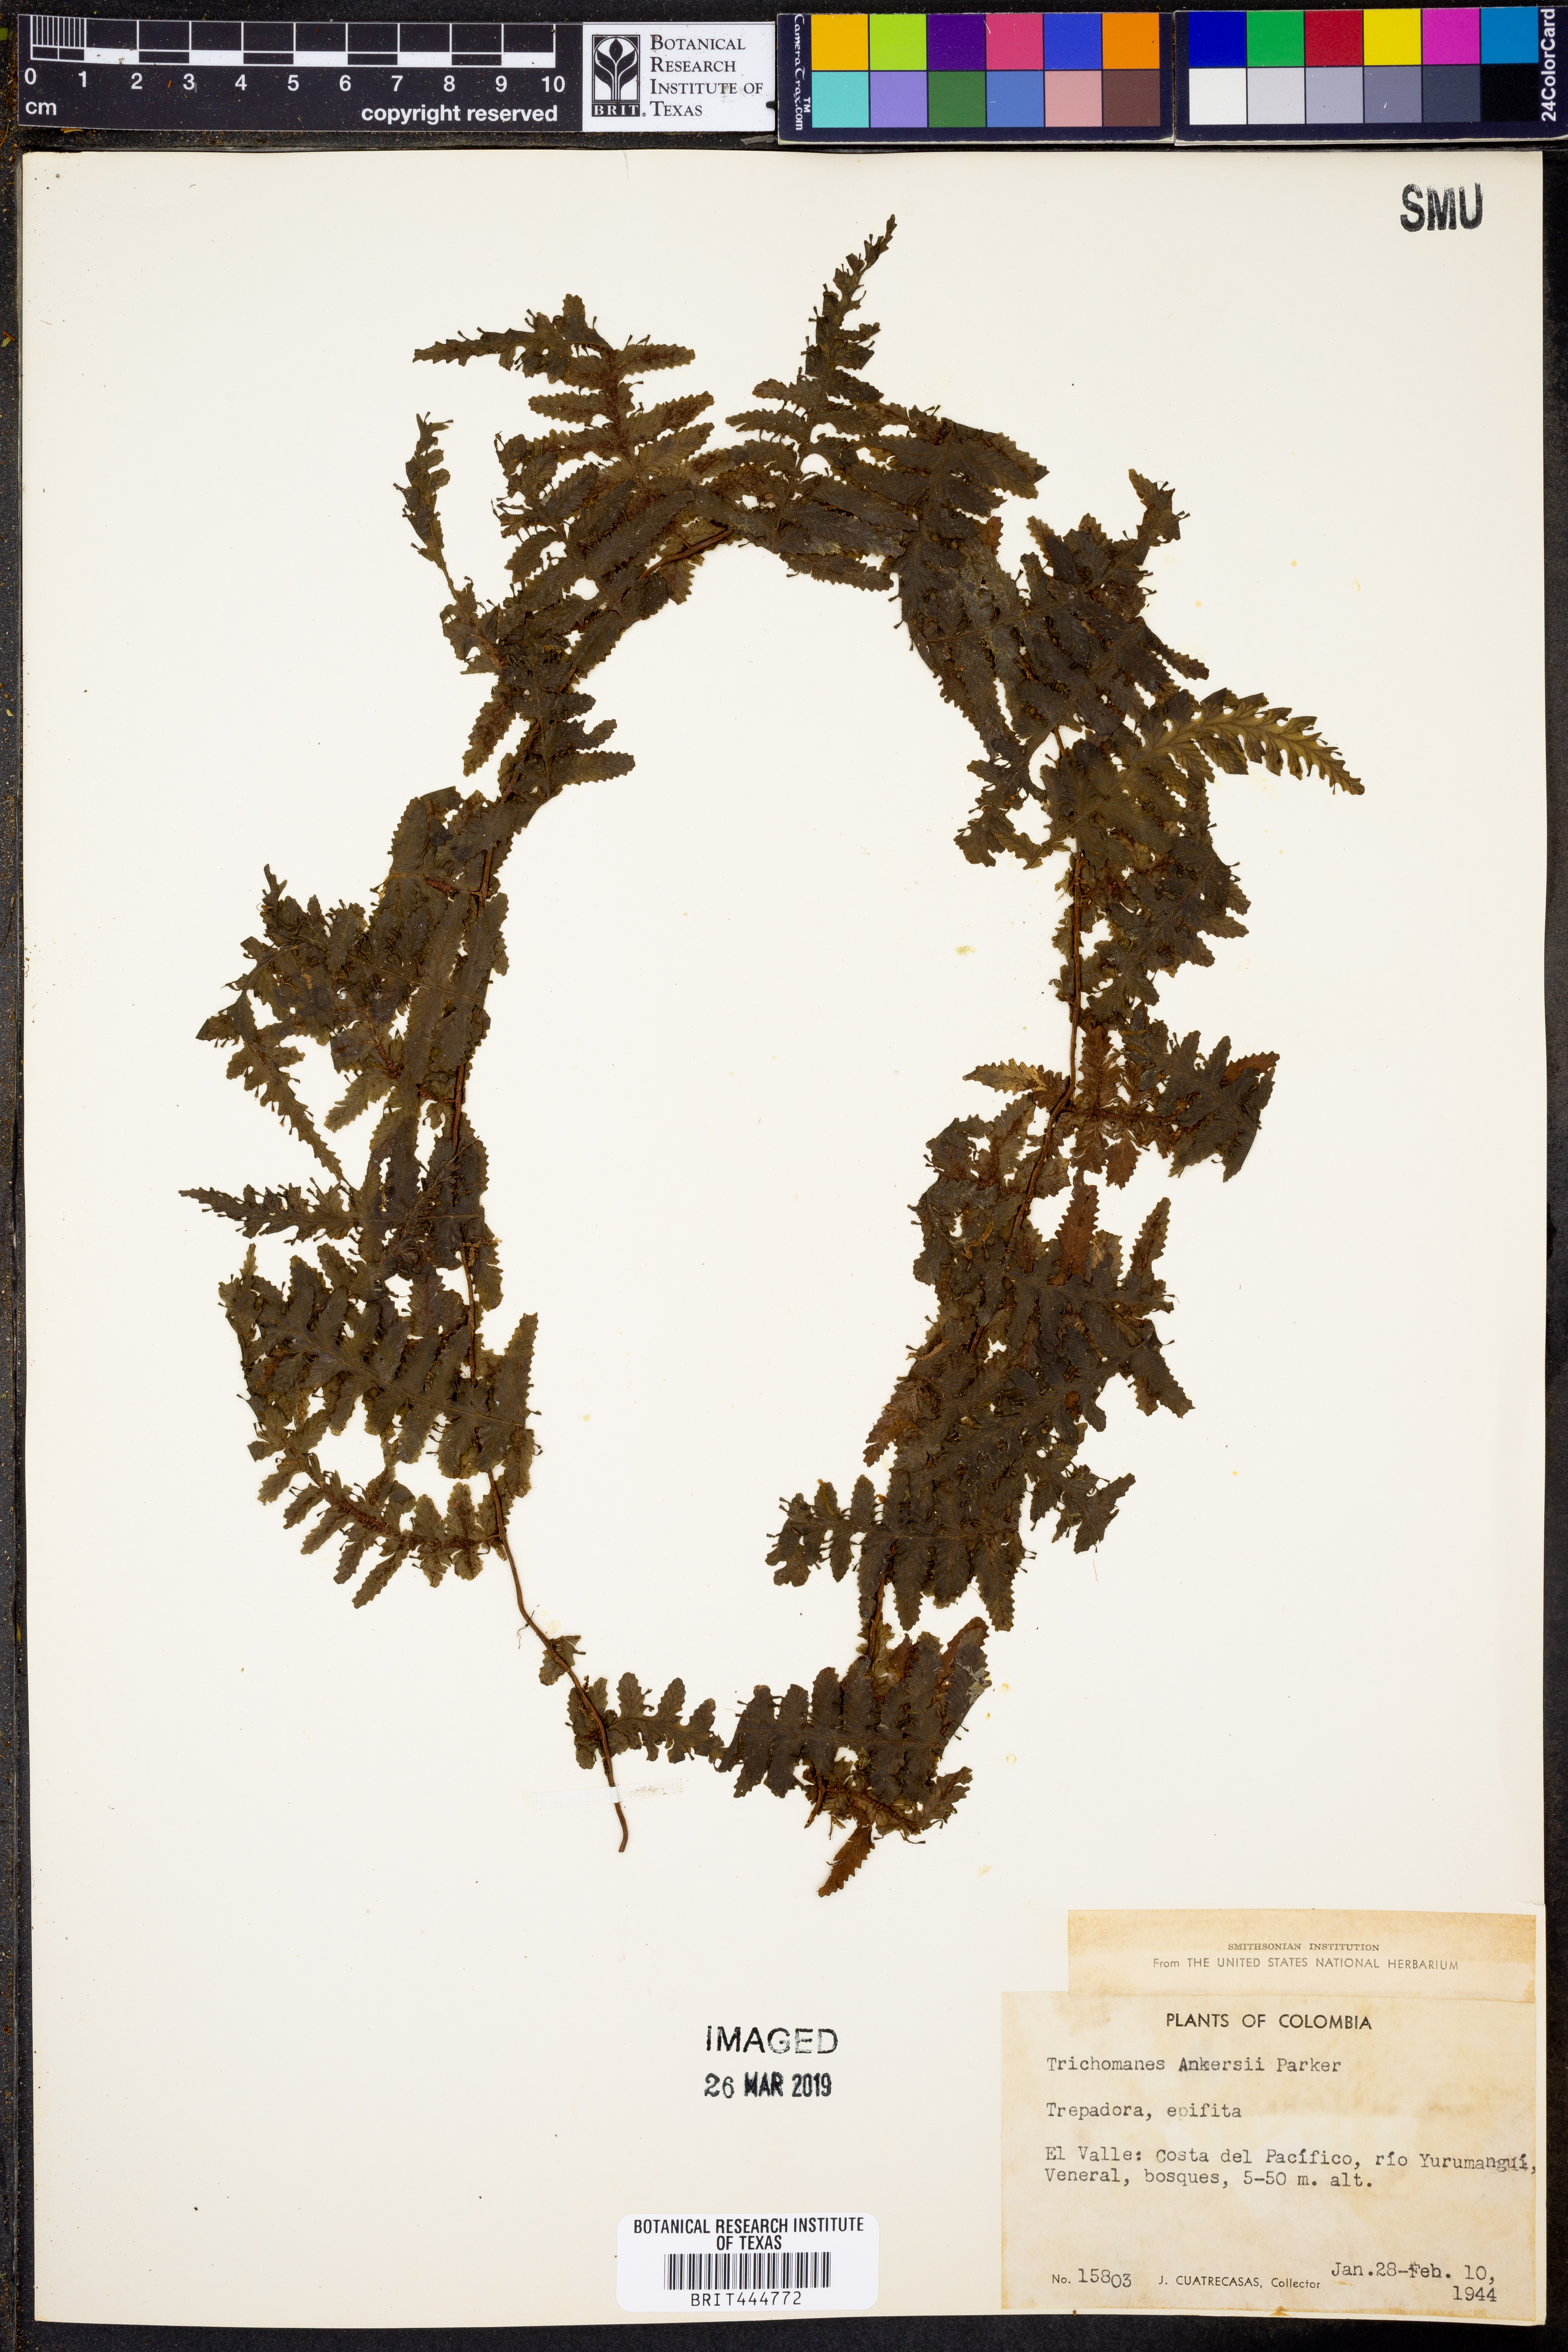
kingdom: Plantae
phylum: Tracheophyta
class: Polypodiopsida
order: Hymenophyllales
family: Hymenophyllaceae
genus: Trichomanes
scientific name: Trichomanes ankersii
